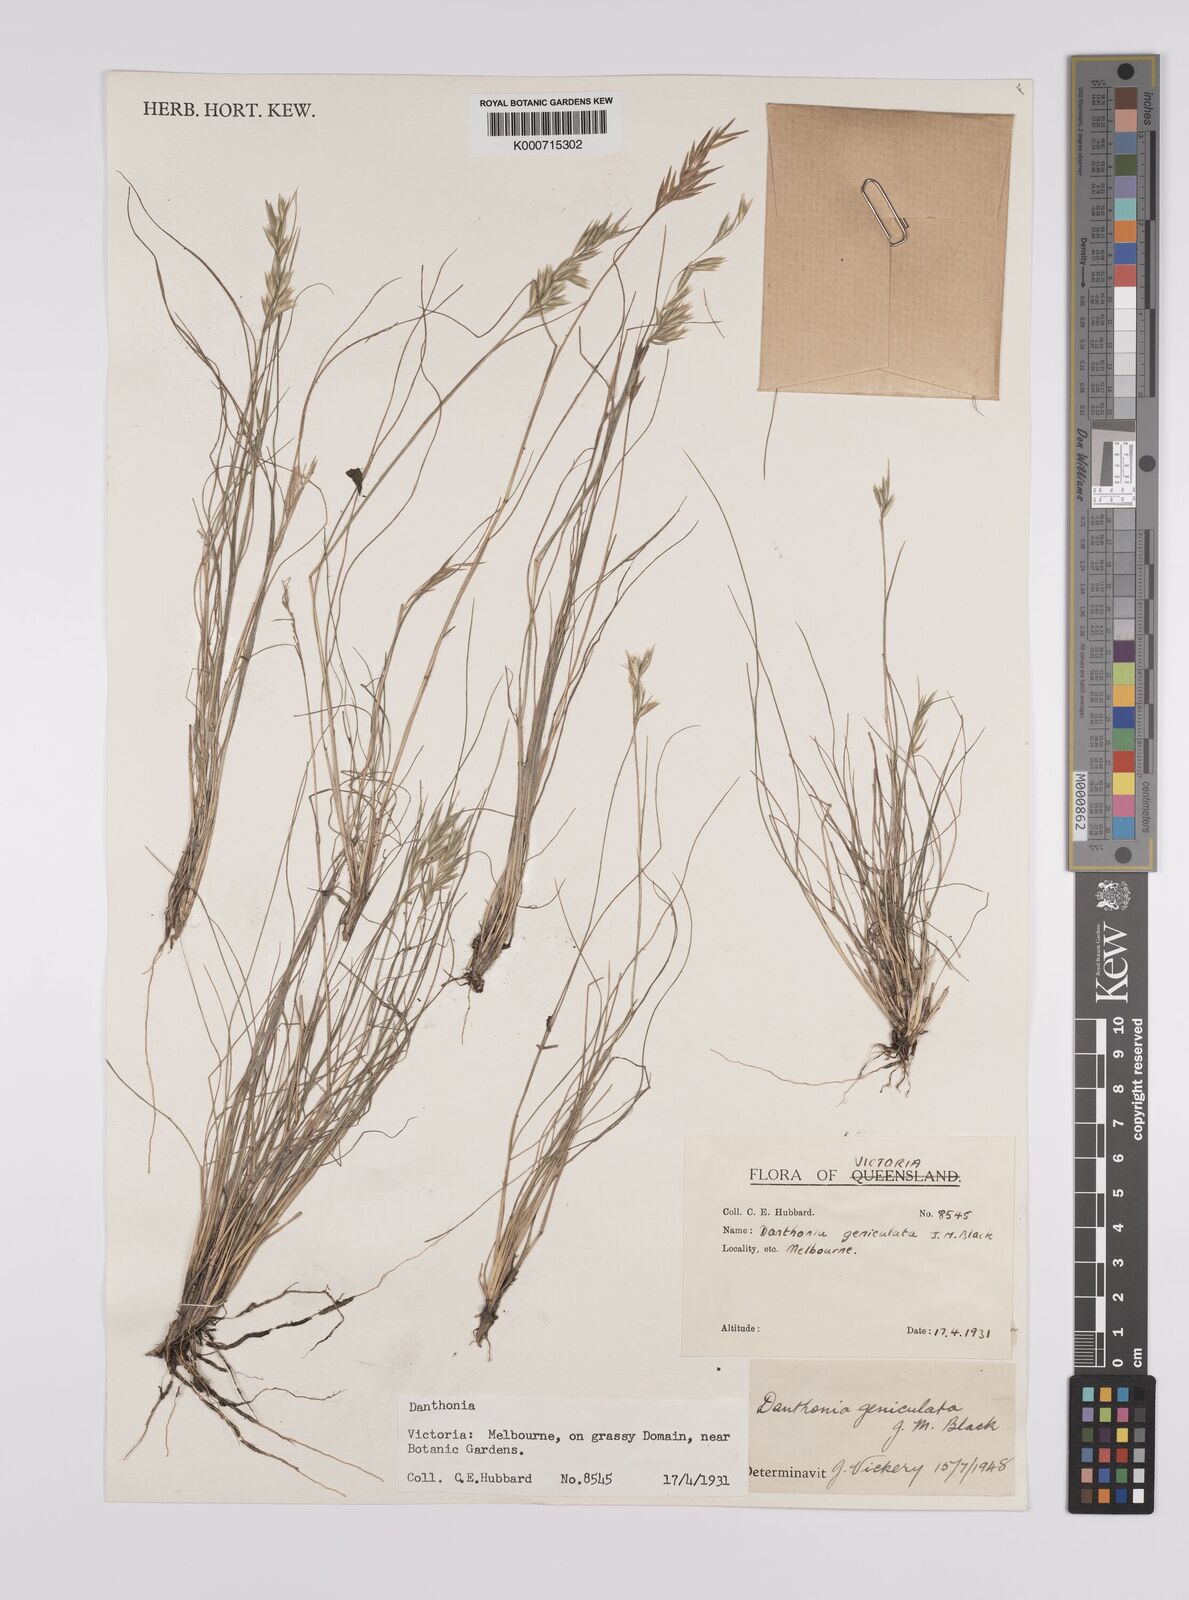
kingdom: Plantae
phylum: Tracheophyta
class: Liliopsida
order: Poales
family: Poaceae
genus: Rytidosperma
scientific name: Rytidosperma geniculatum
